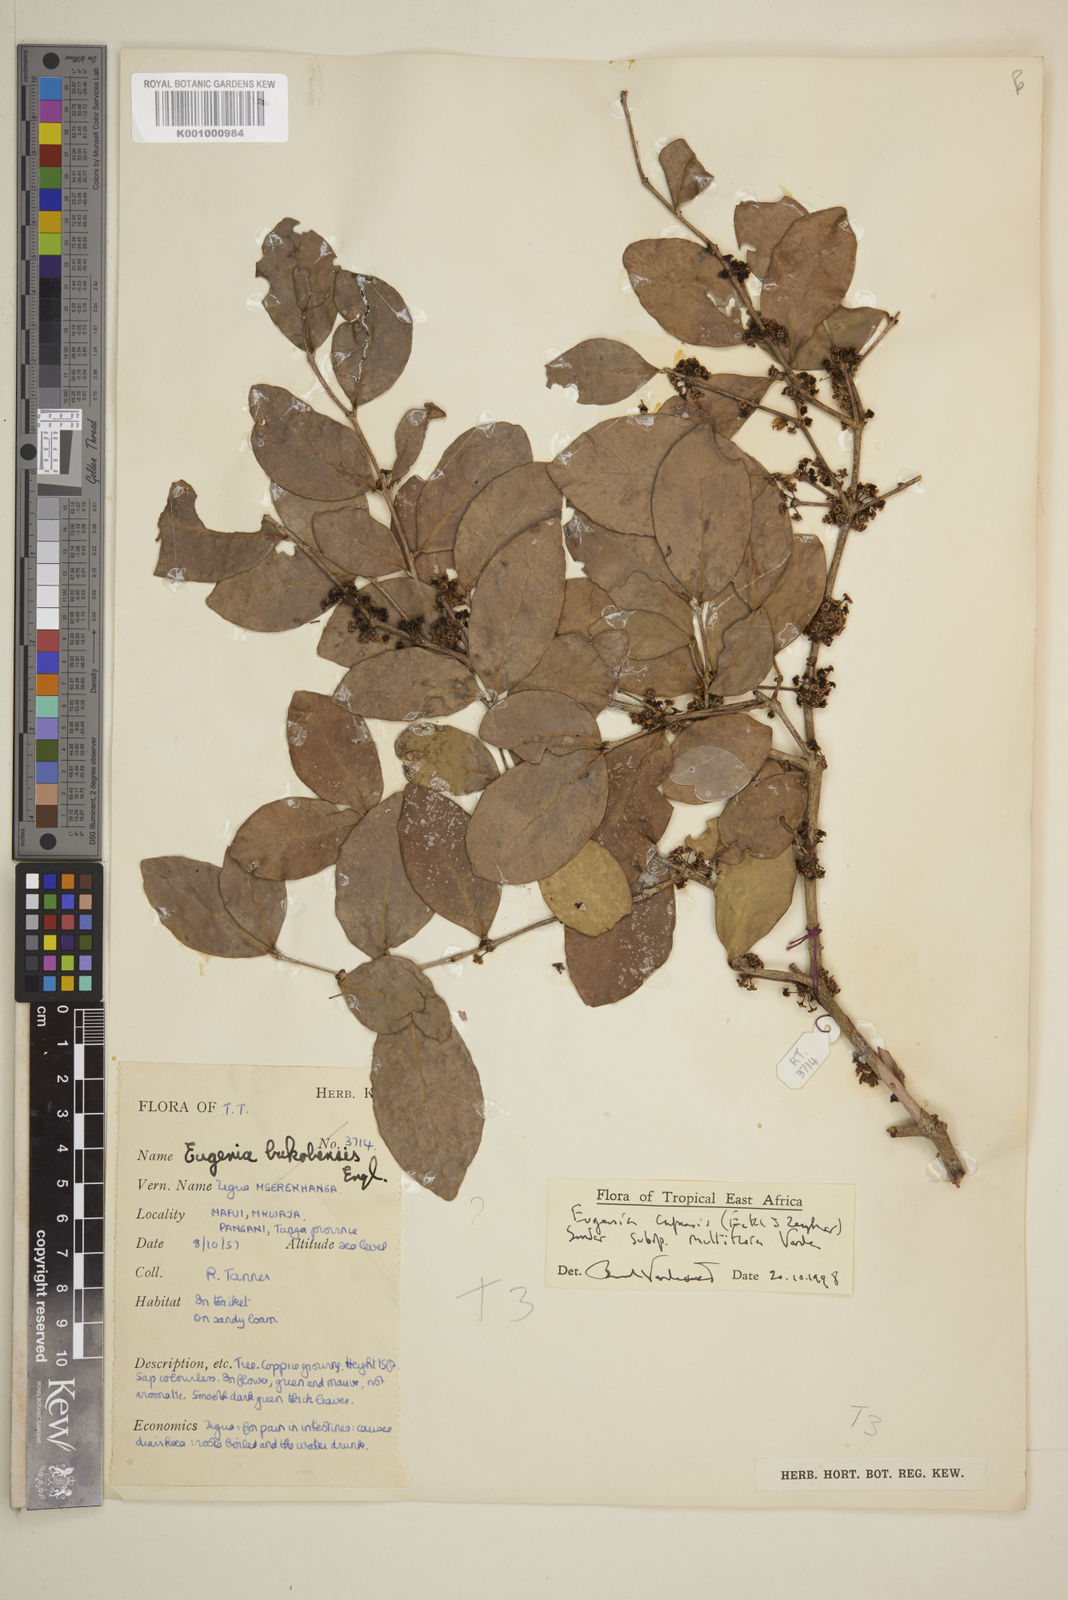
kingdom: Plantae
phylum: Tracheophyta
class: Magnoliopsida
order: Myrtales
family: Myrtaceae
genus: Eugenia
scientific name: Eugenia capensis
